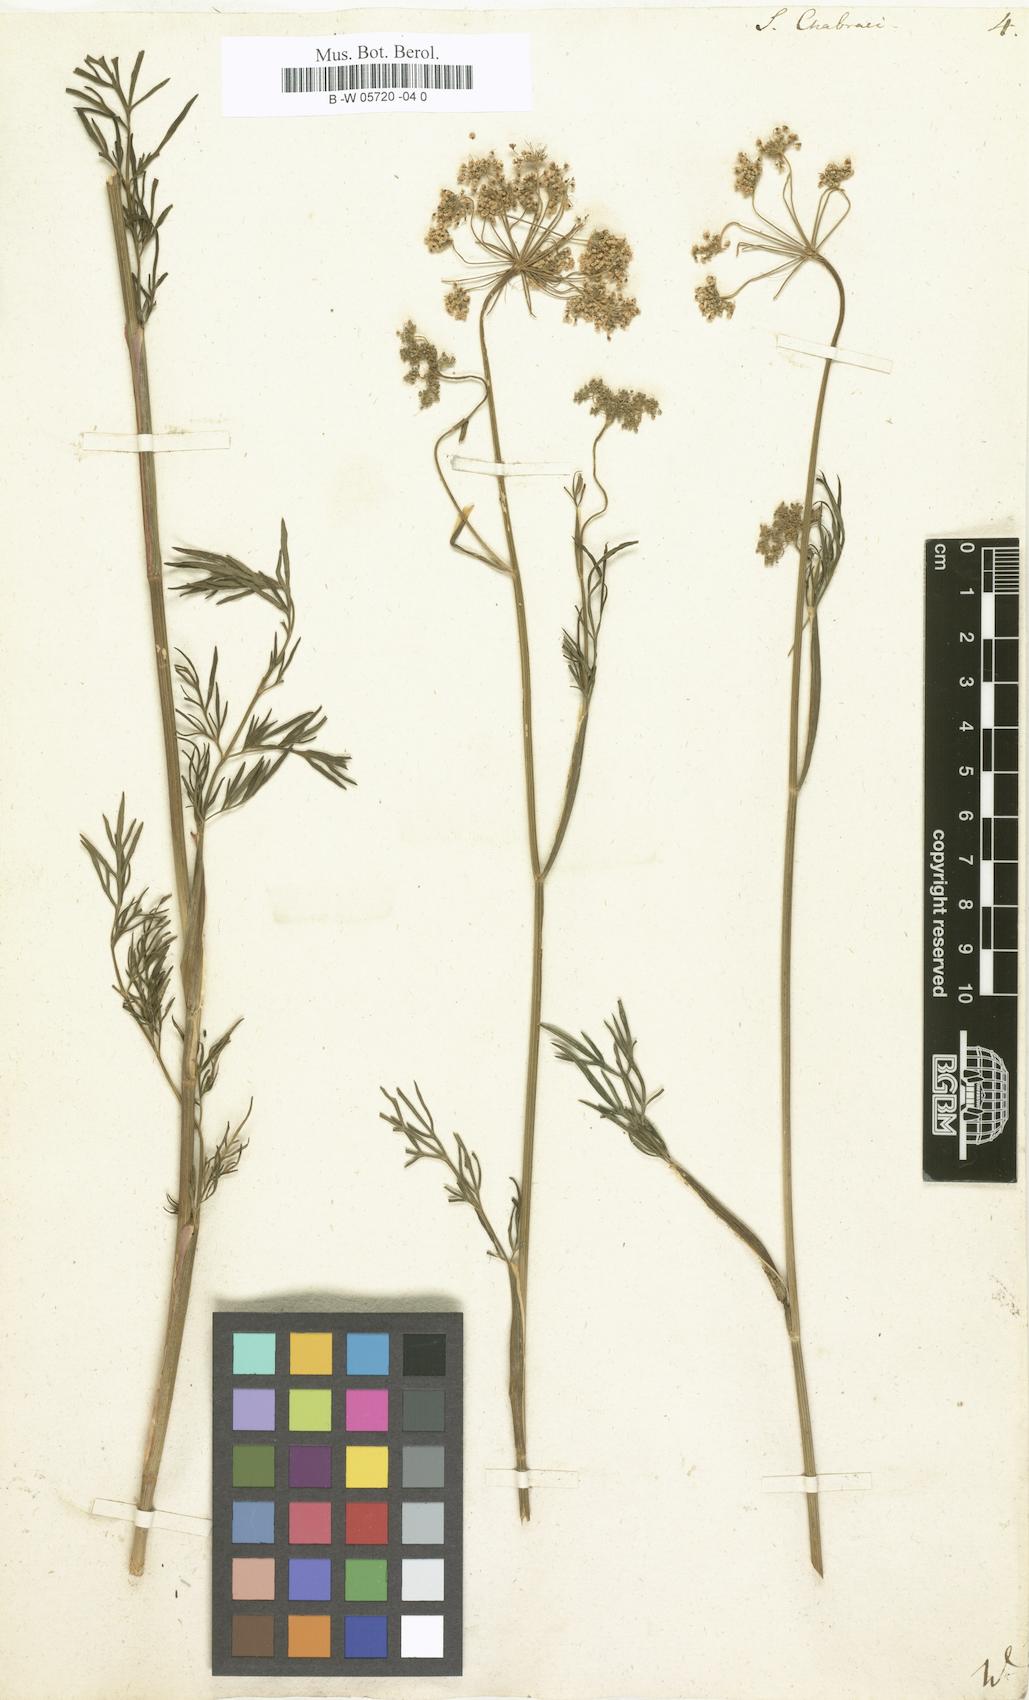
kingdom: Plantae
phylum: Tracheophyta
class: Magnoliopsida
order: Apiales
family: Apiaceae
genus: Selinum
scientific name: Selinum chabraei
